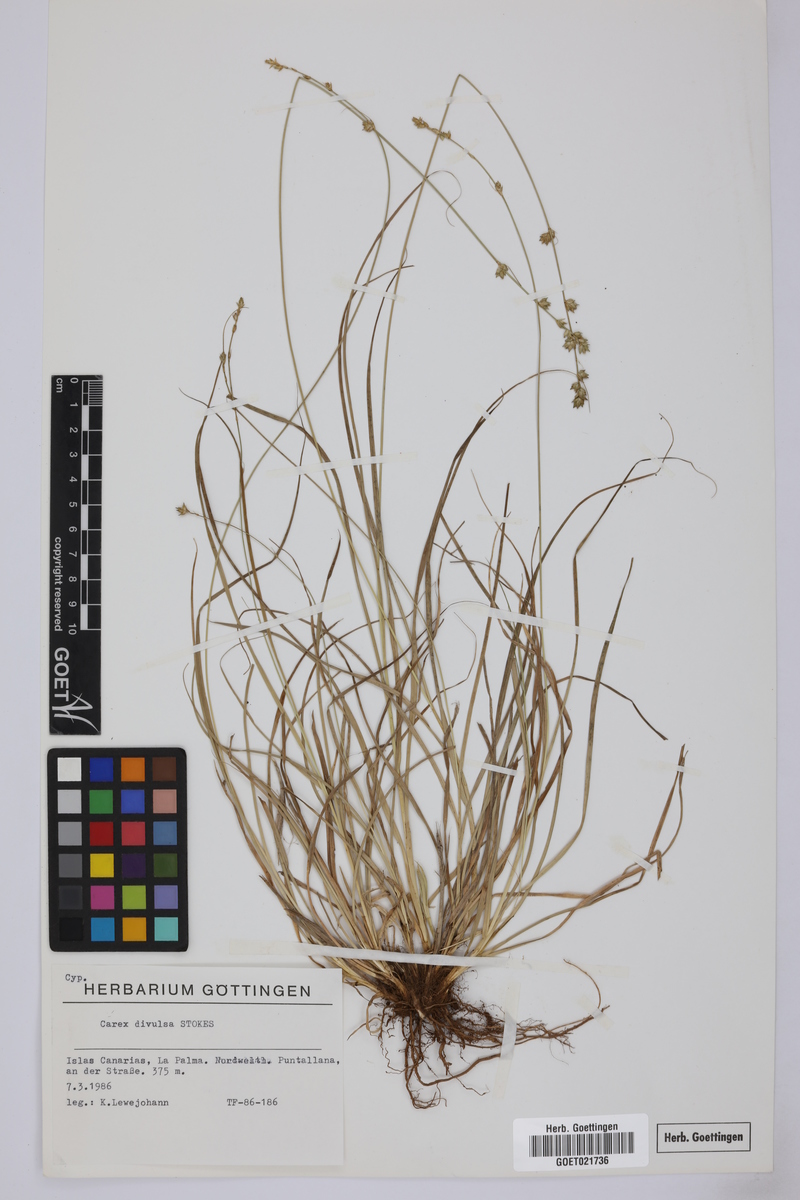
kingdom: Plantae
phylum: Tracheophyta
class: Liliopsida
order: Poales
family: Cyperaceae
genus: Carex
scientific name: Carex divulsa
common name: Grassland sedge
